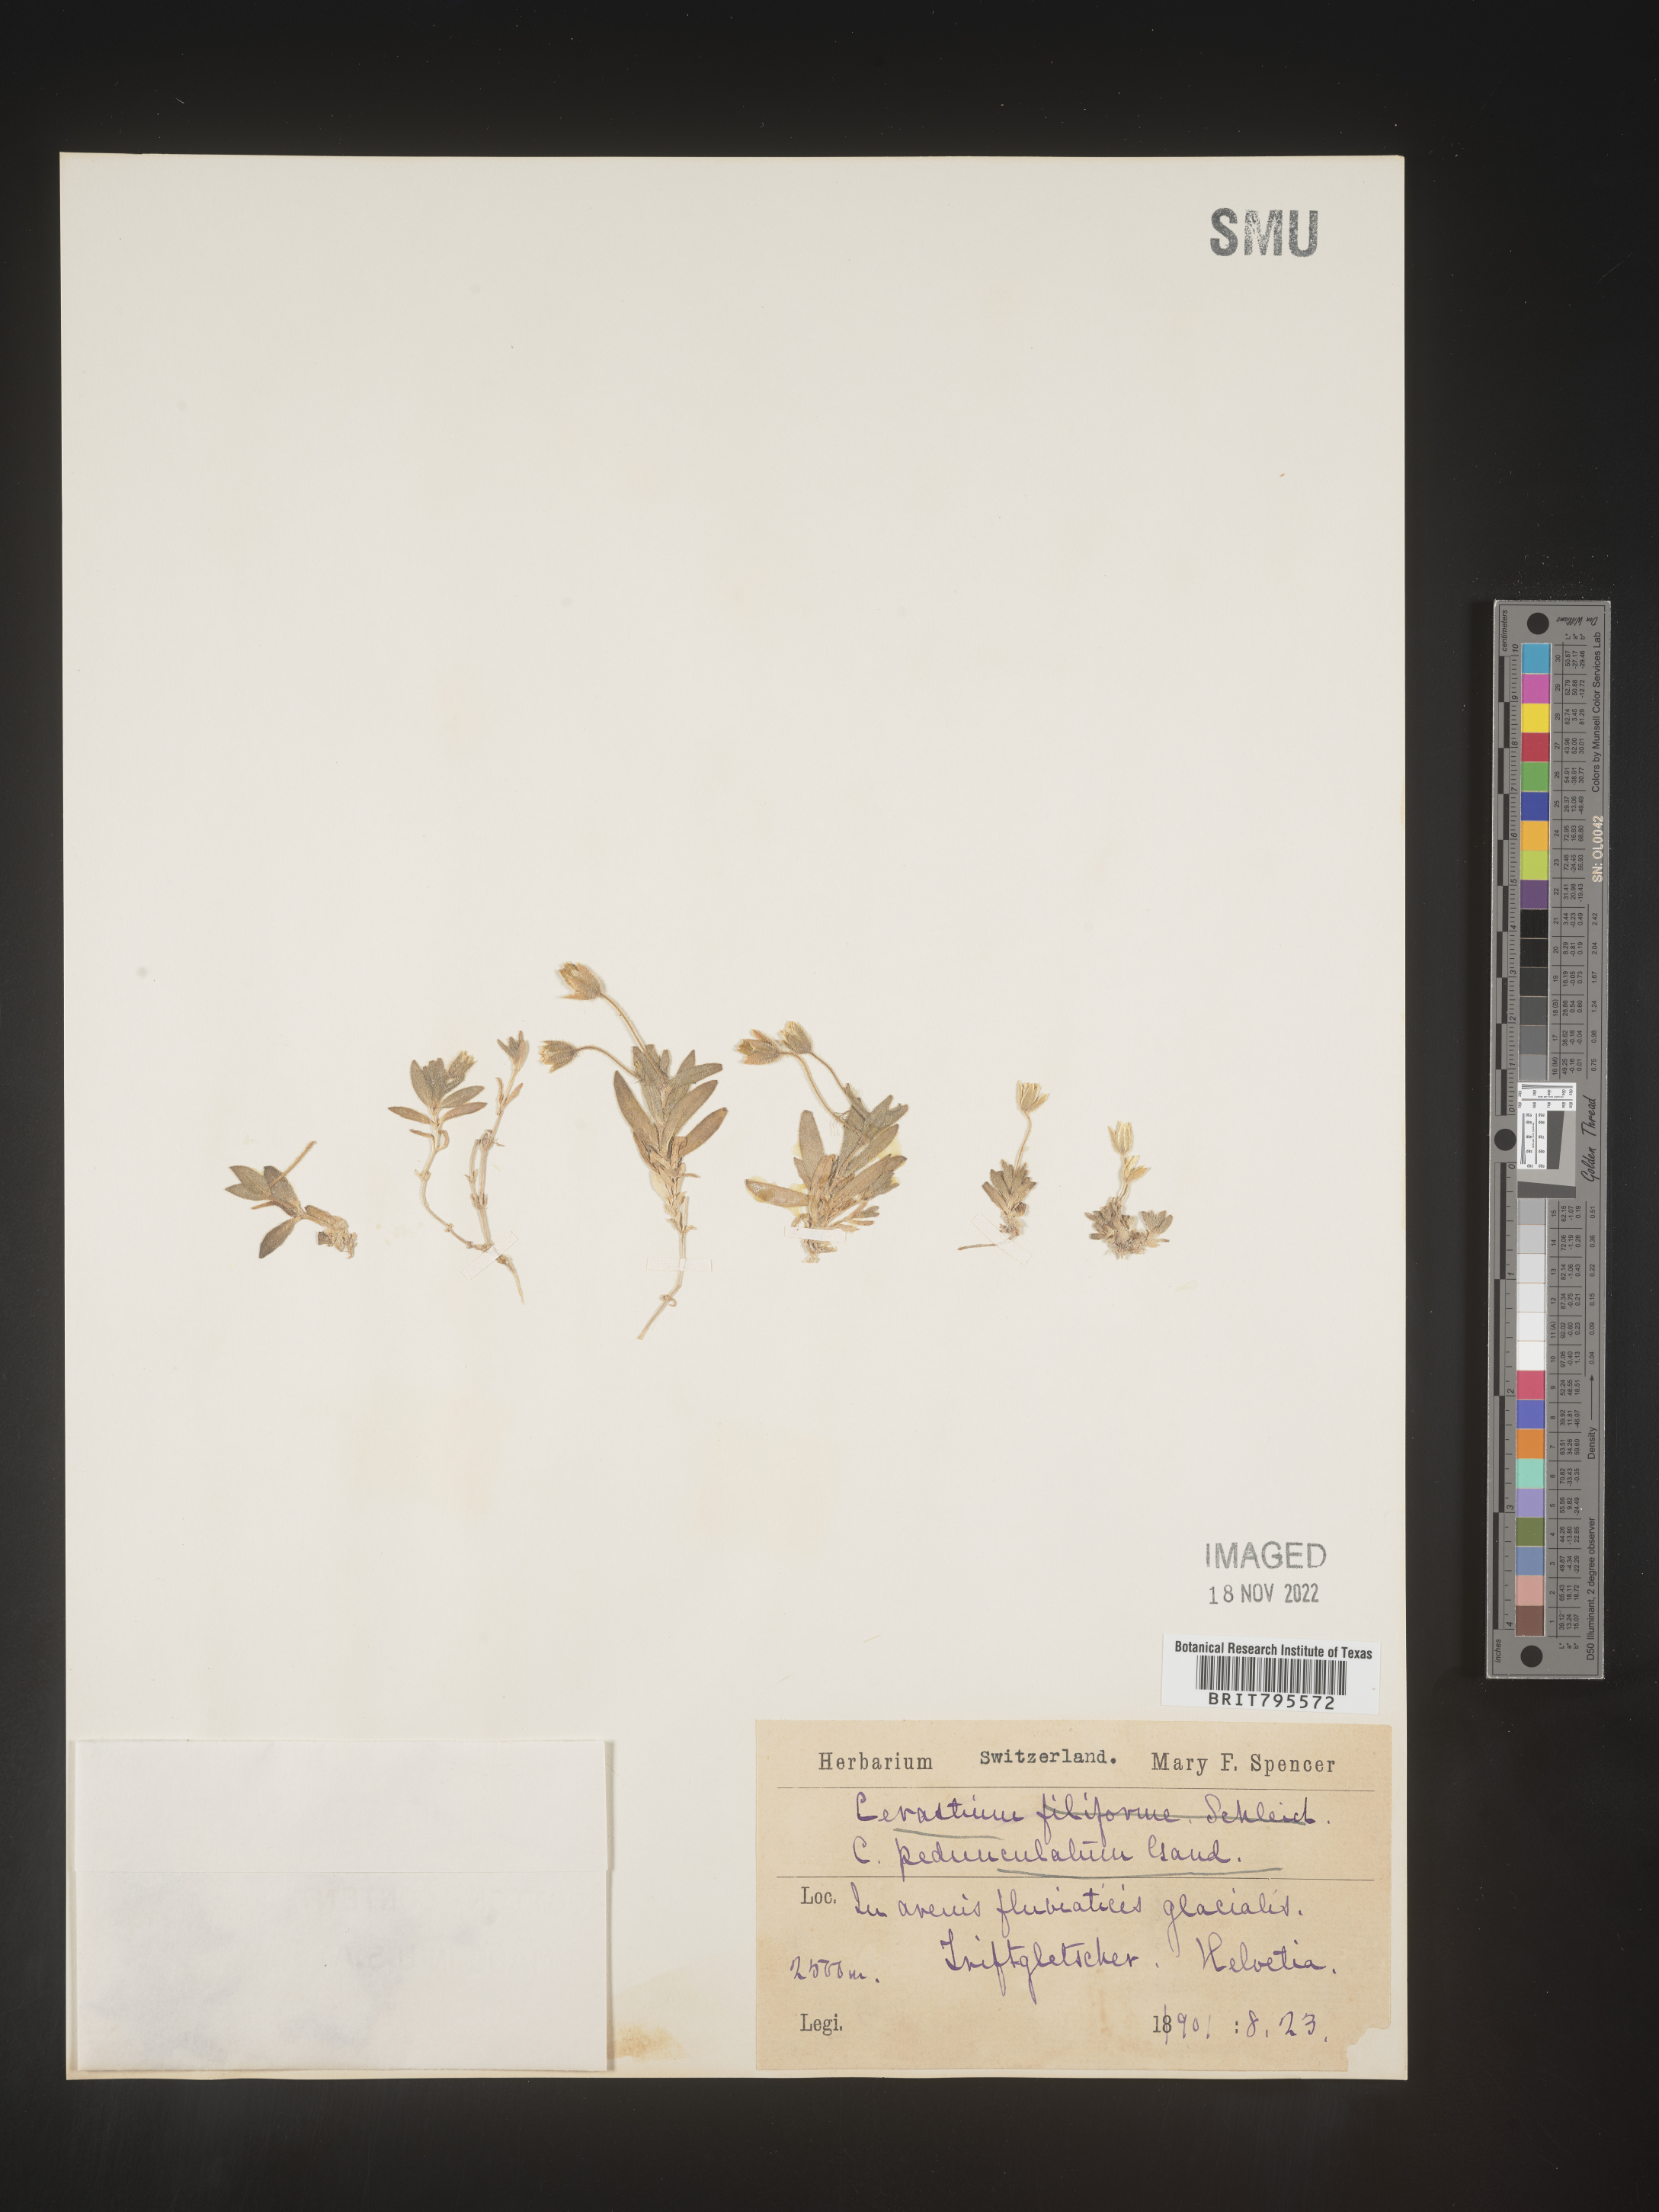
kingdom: Plantae
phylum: Tracheophyta
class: Magnoliopsida
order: Caryophyllales
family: Caryophyllaceae
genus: Cerastium
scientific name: Cerastium
